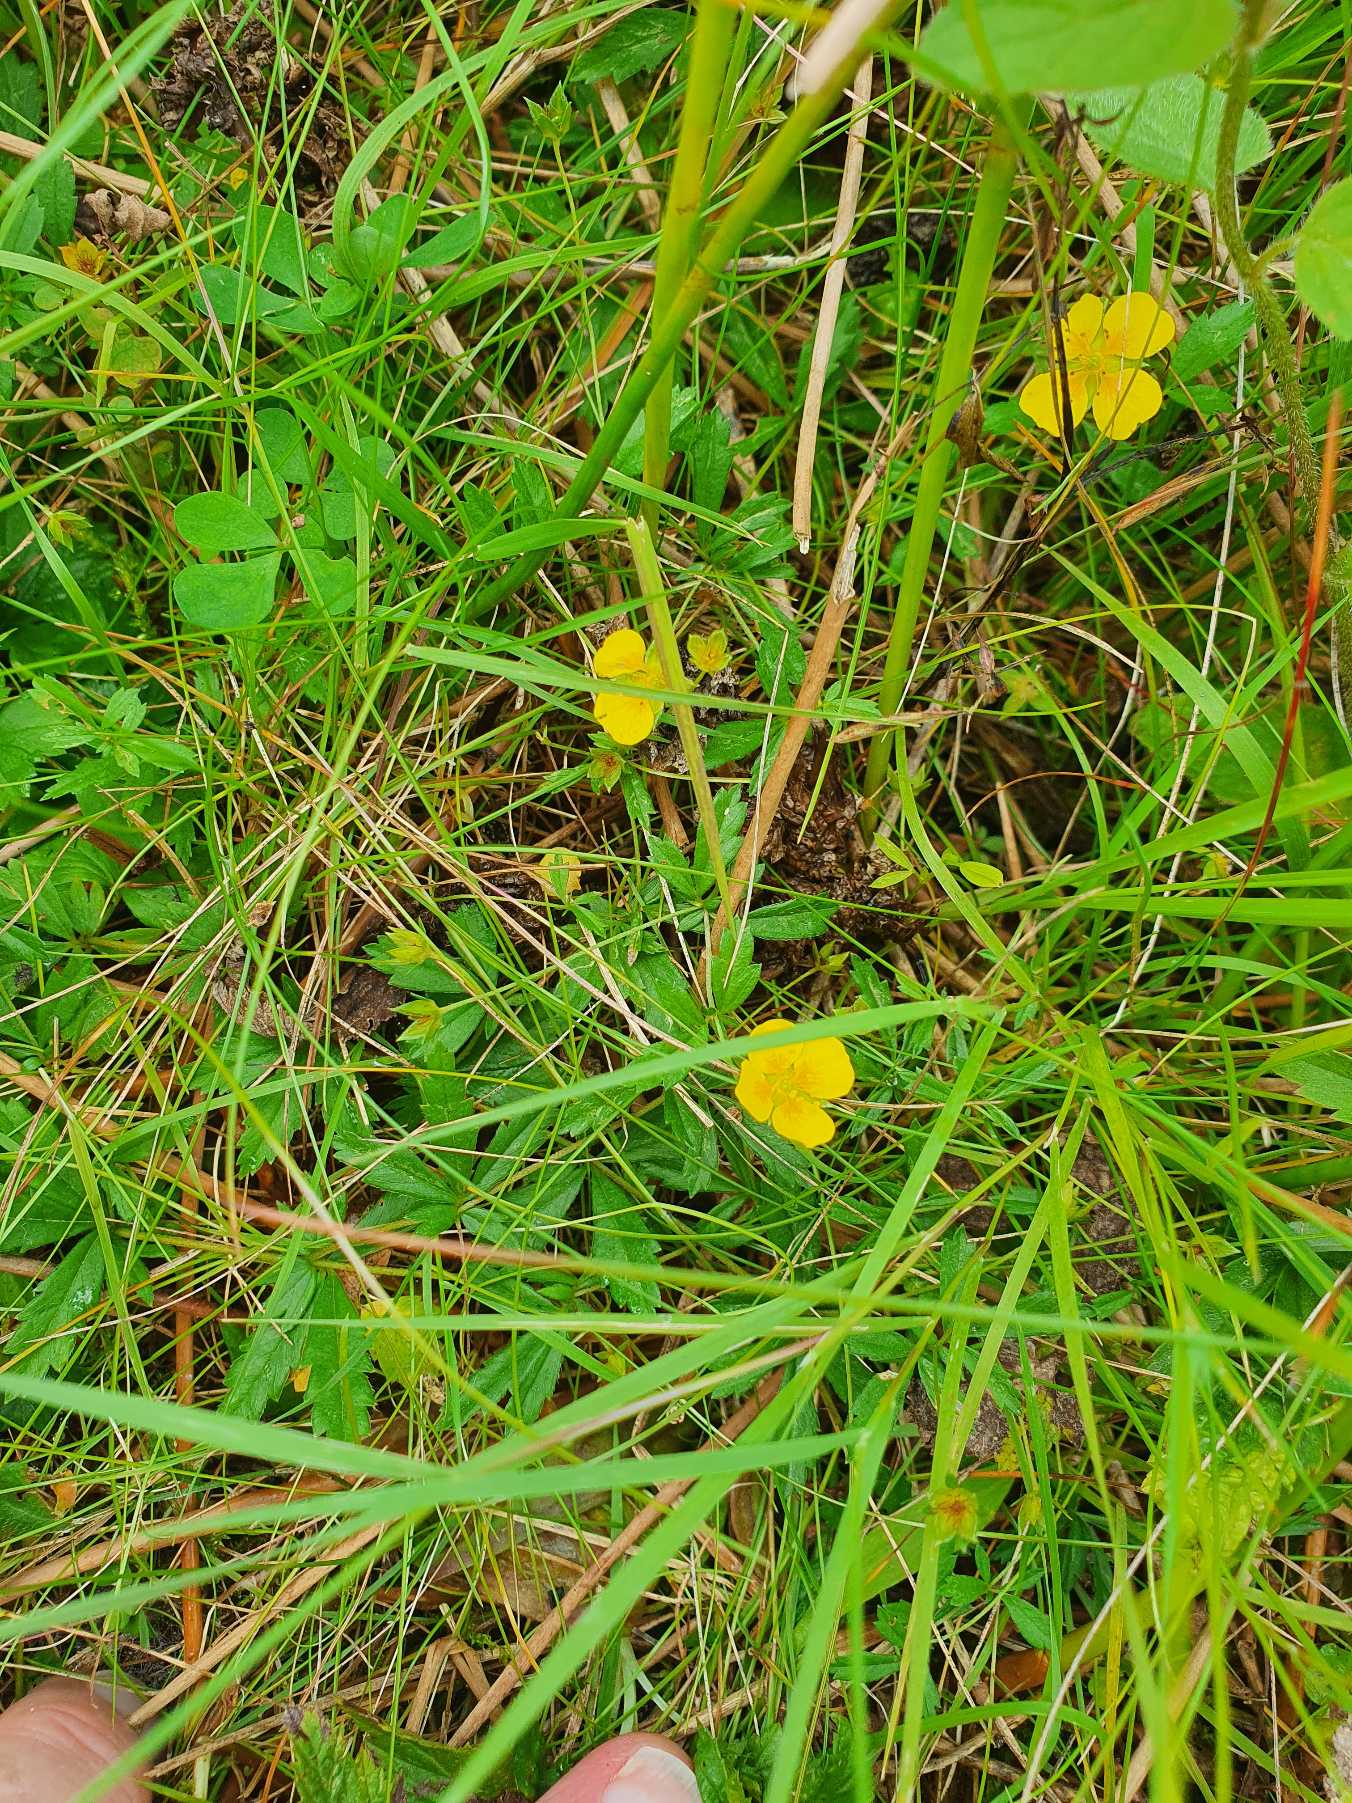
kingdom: Plantae
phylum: Tracheophyta
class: Magnoliopsida
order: Rosales
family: Rosaceae
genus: Potentilla
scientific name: Potentilla erecta
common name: Tormentil
